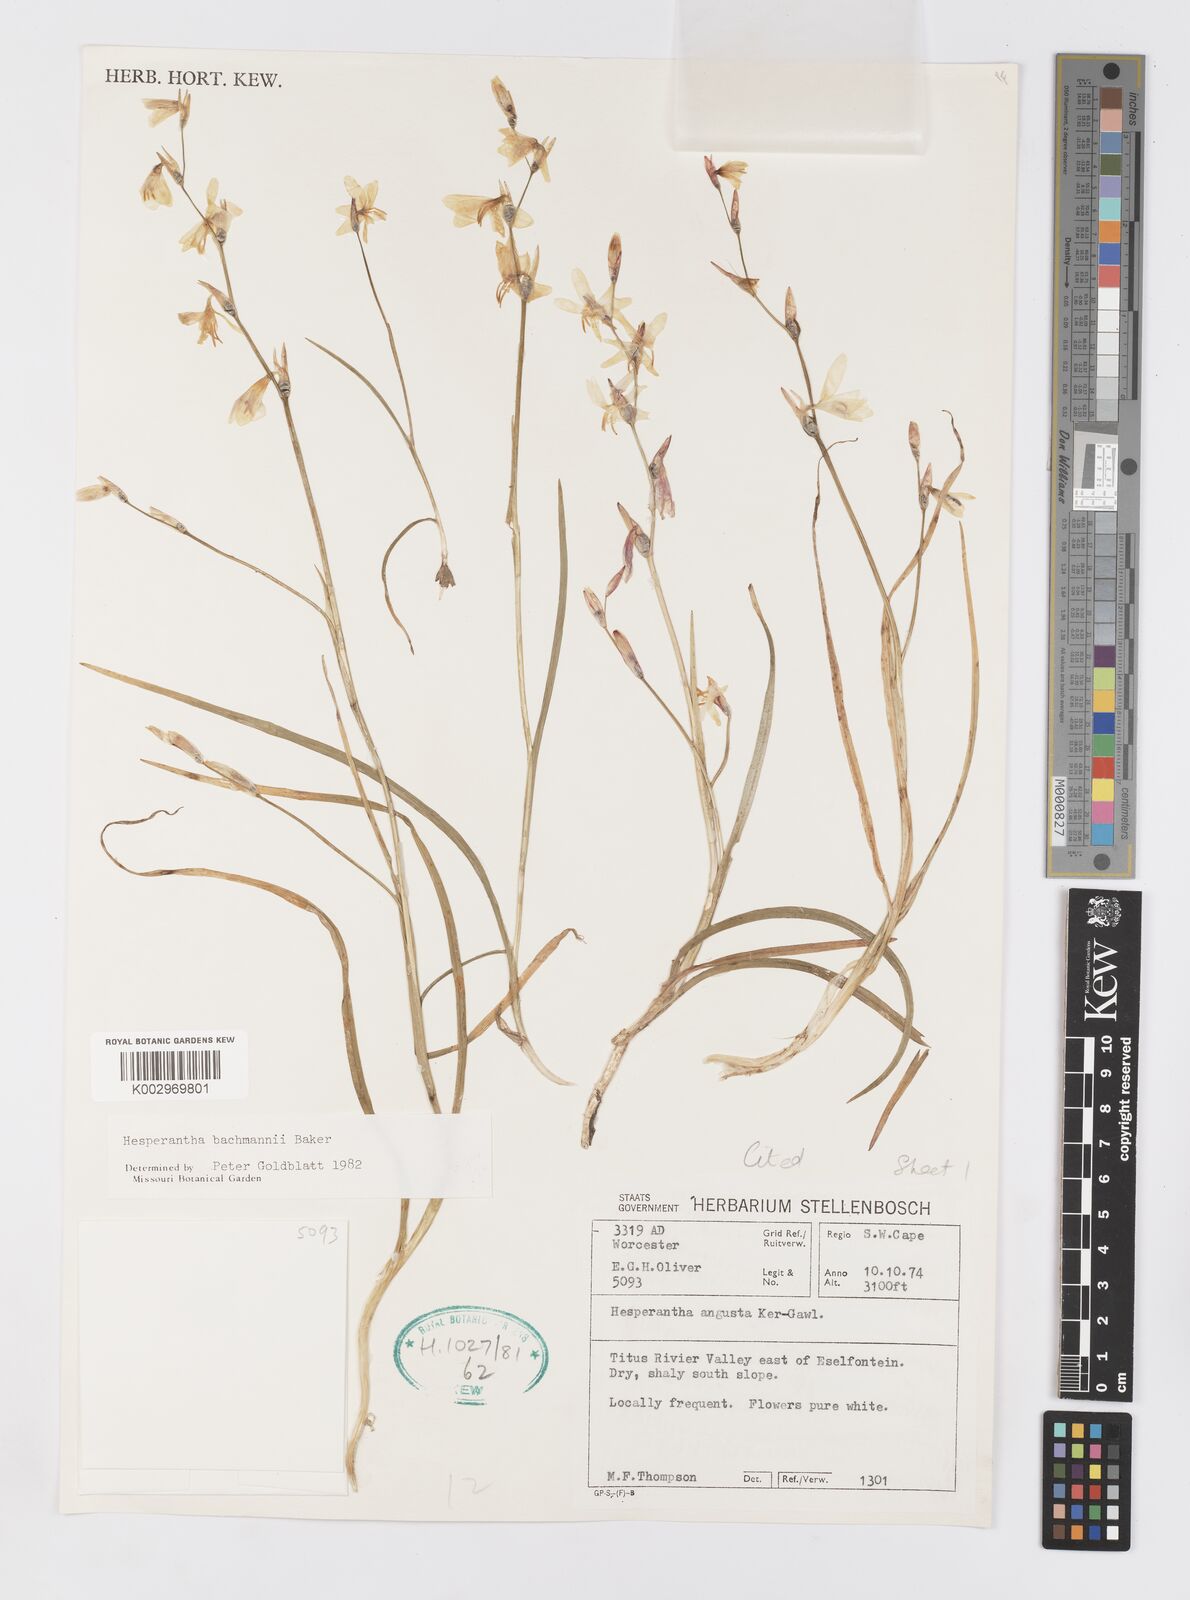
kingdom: Plantae
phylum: Tracheophyta
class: Liliopsida
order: Asparagales
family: Iridaceae
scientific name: Iridaceae
